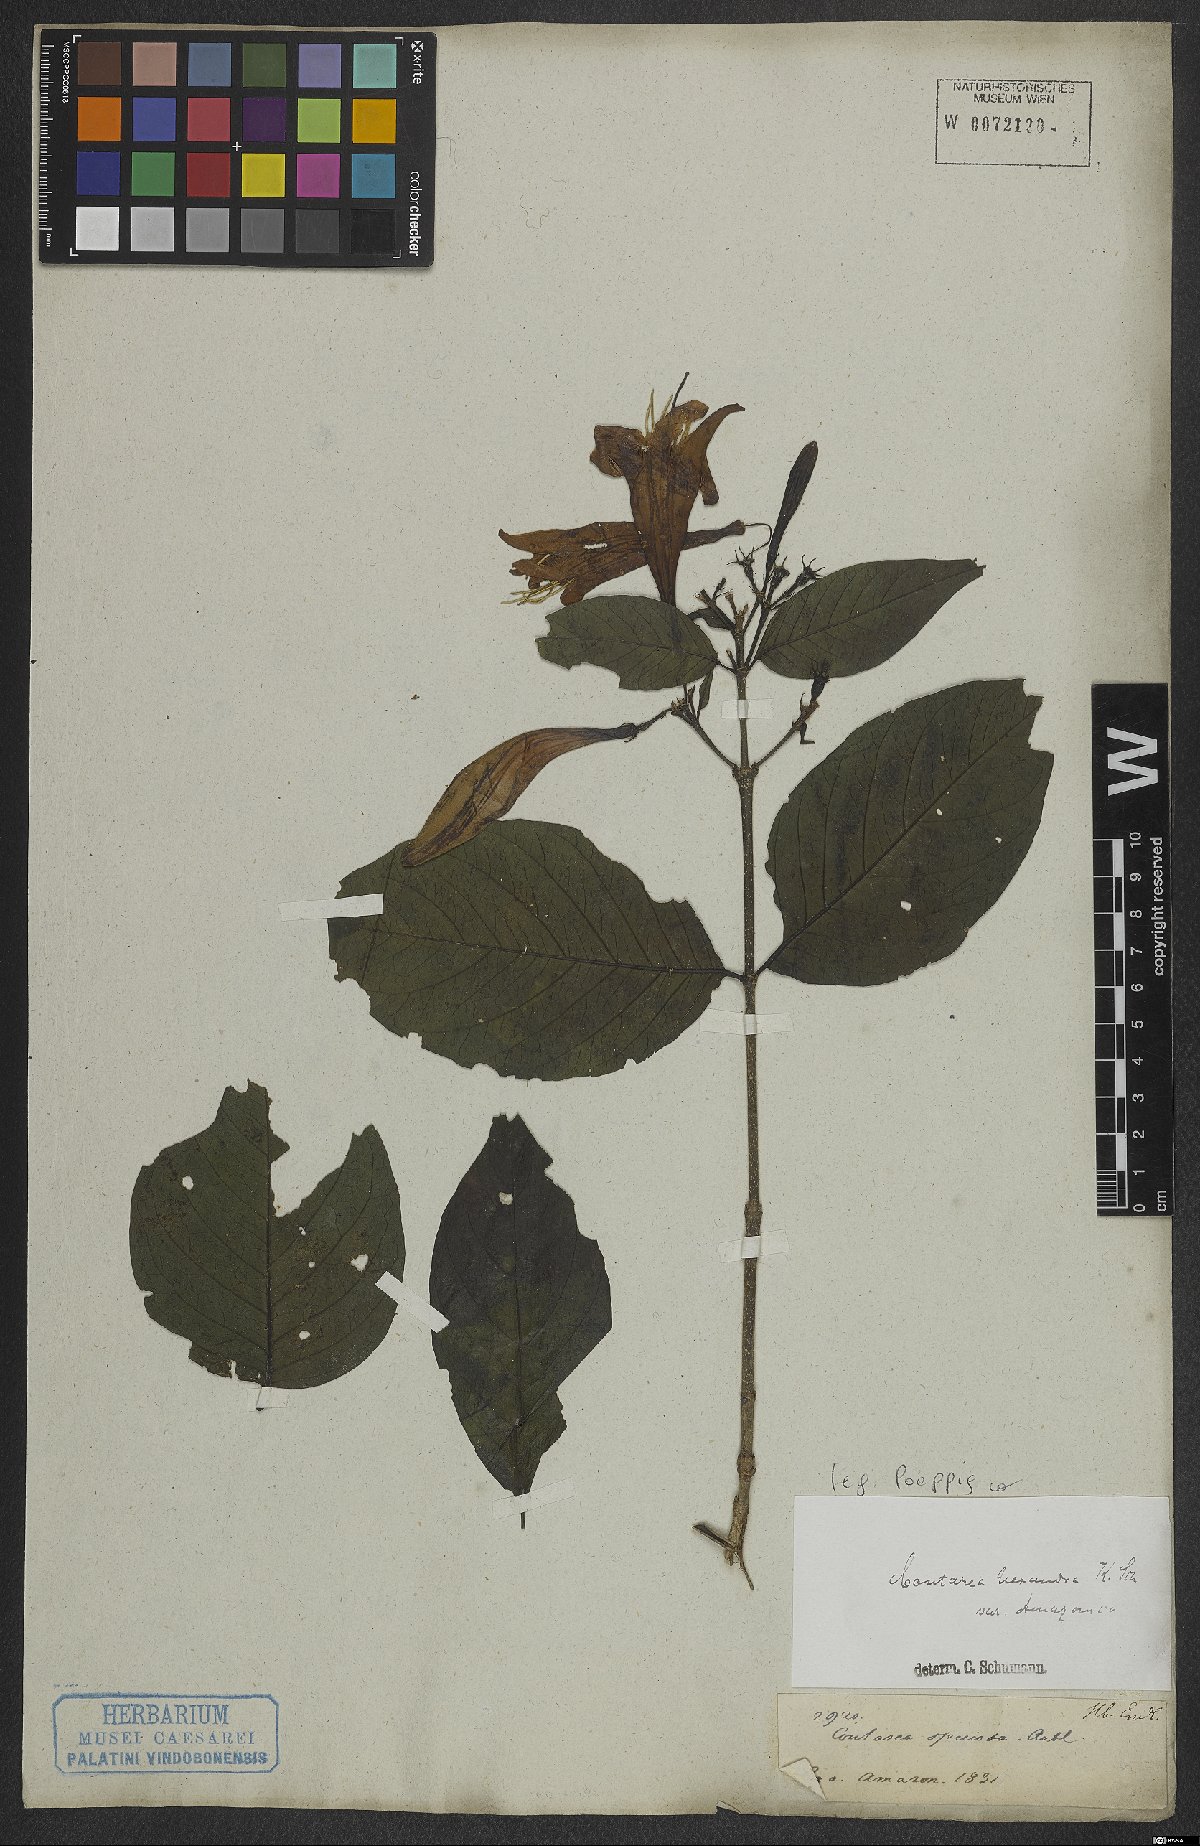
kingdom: Plantae
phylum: Tracheophyta
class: Magnoliopsida
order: Gentianales
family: Rubiaceae
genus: Coutarea
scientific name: Coutarea hexandra
